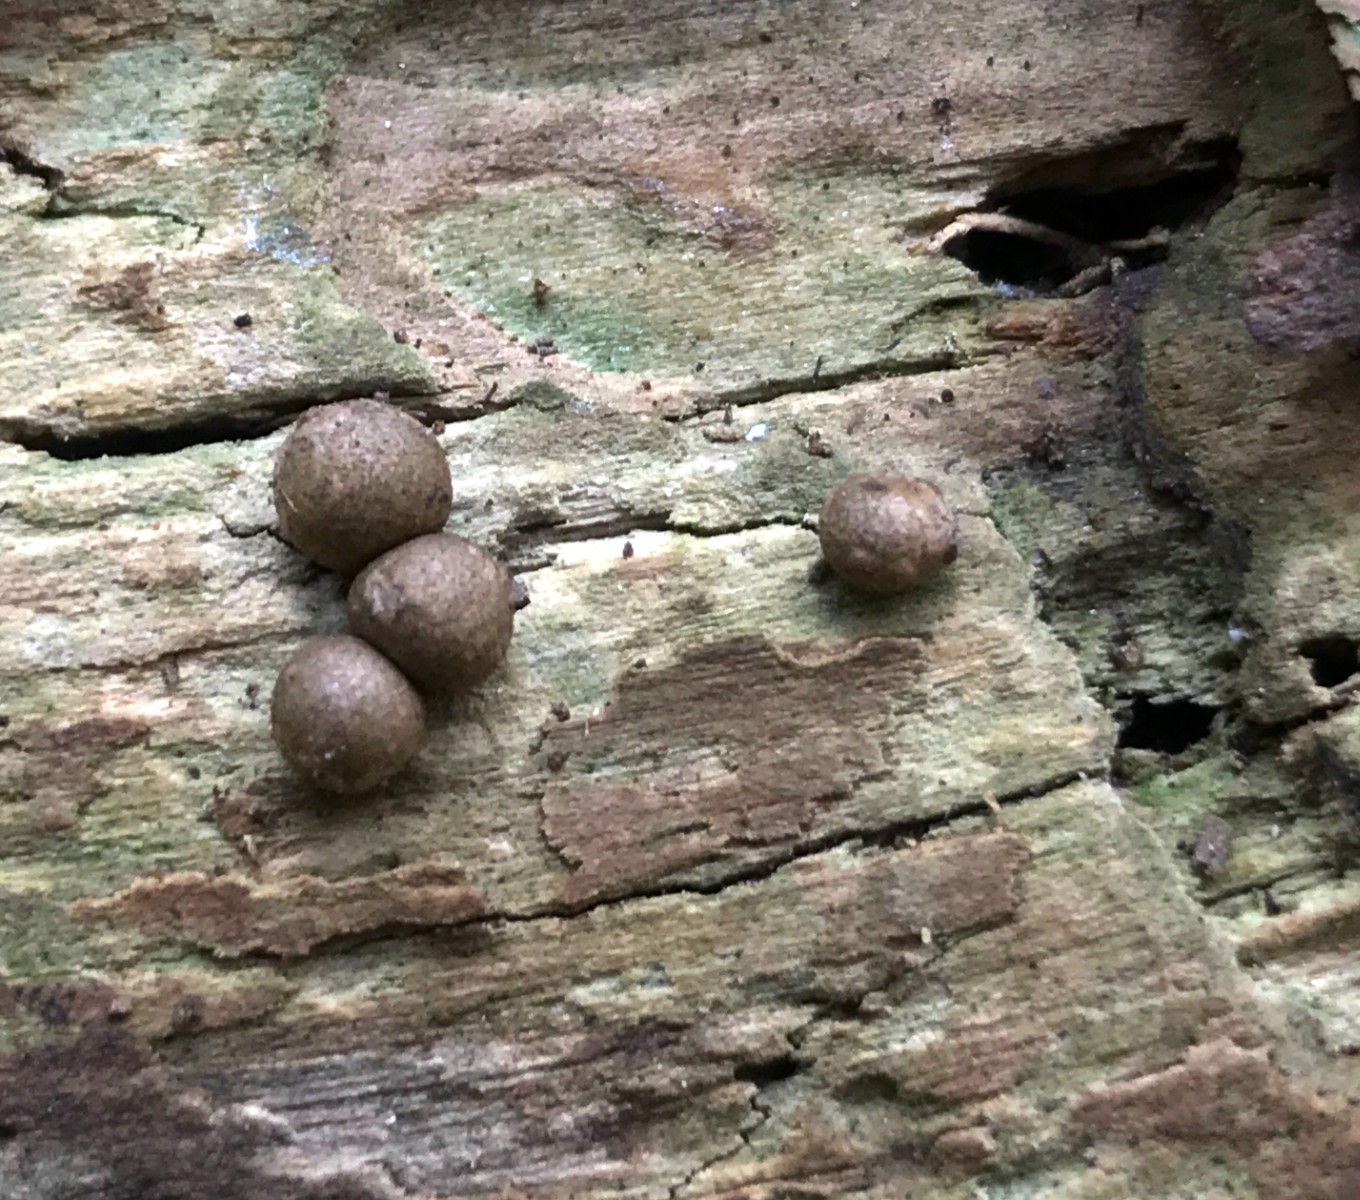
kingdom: Protozoa
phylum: Mycetozoa
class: Myxomycetes
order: Cribrariales
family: Tubiferaceae
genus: Lycogala
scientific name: Lycogala epidendrum
